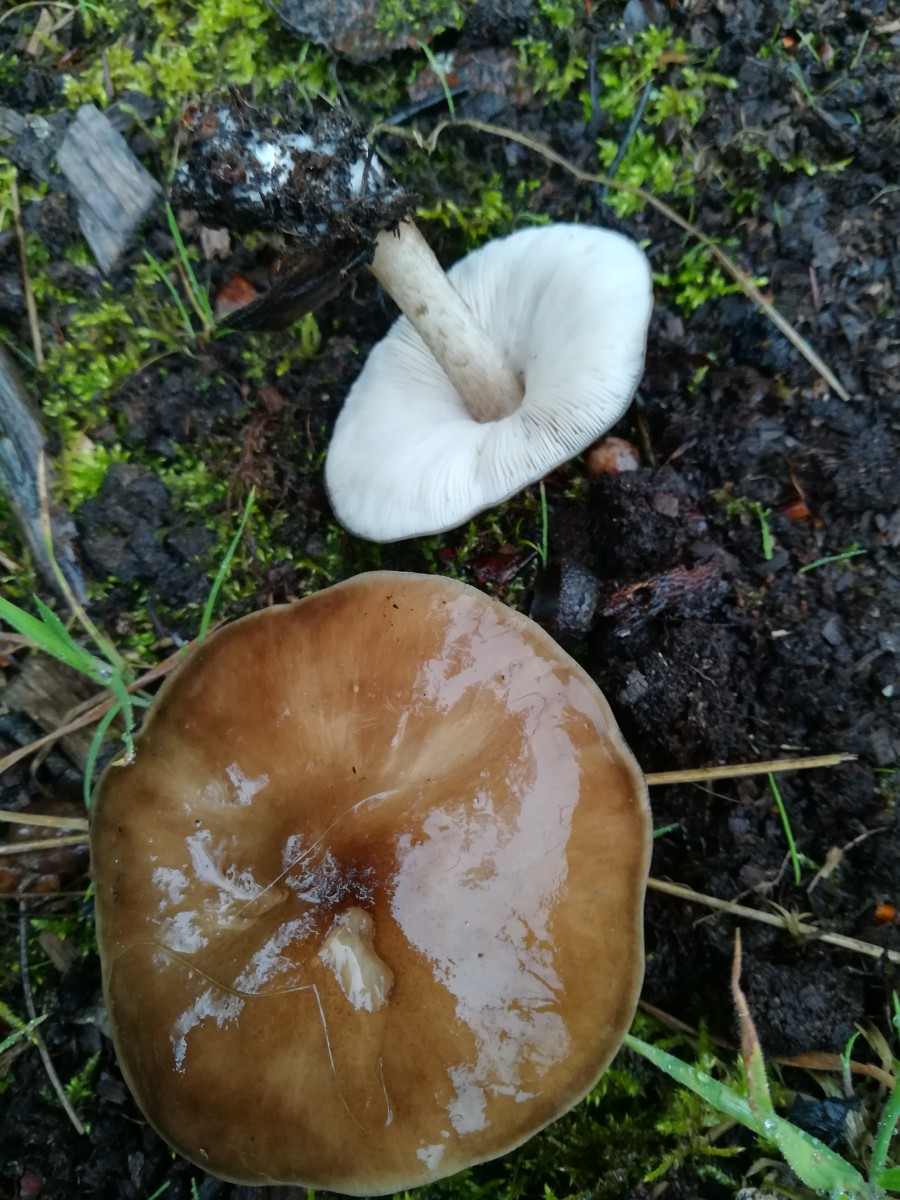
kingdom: Fungi
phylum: Basidiomycota
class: Agaricomycetes
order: Agaricales
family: Pluteaceae
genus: Pluteus
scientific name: Pluteus cervinus
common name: sodfarvet skærmhat
